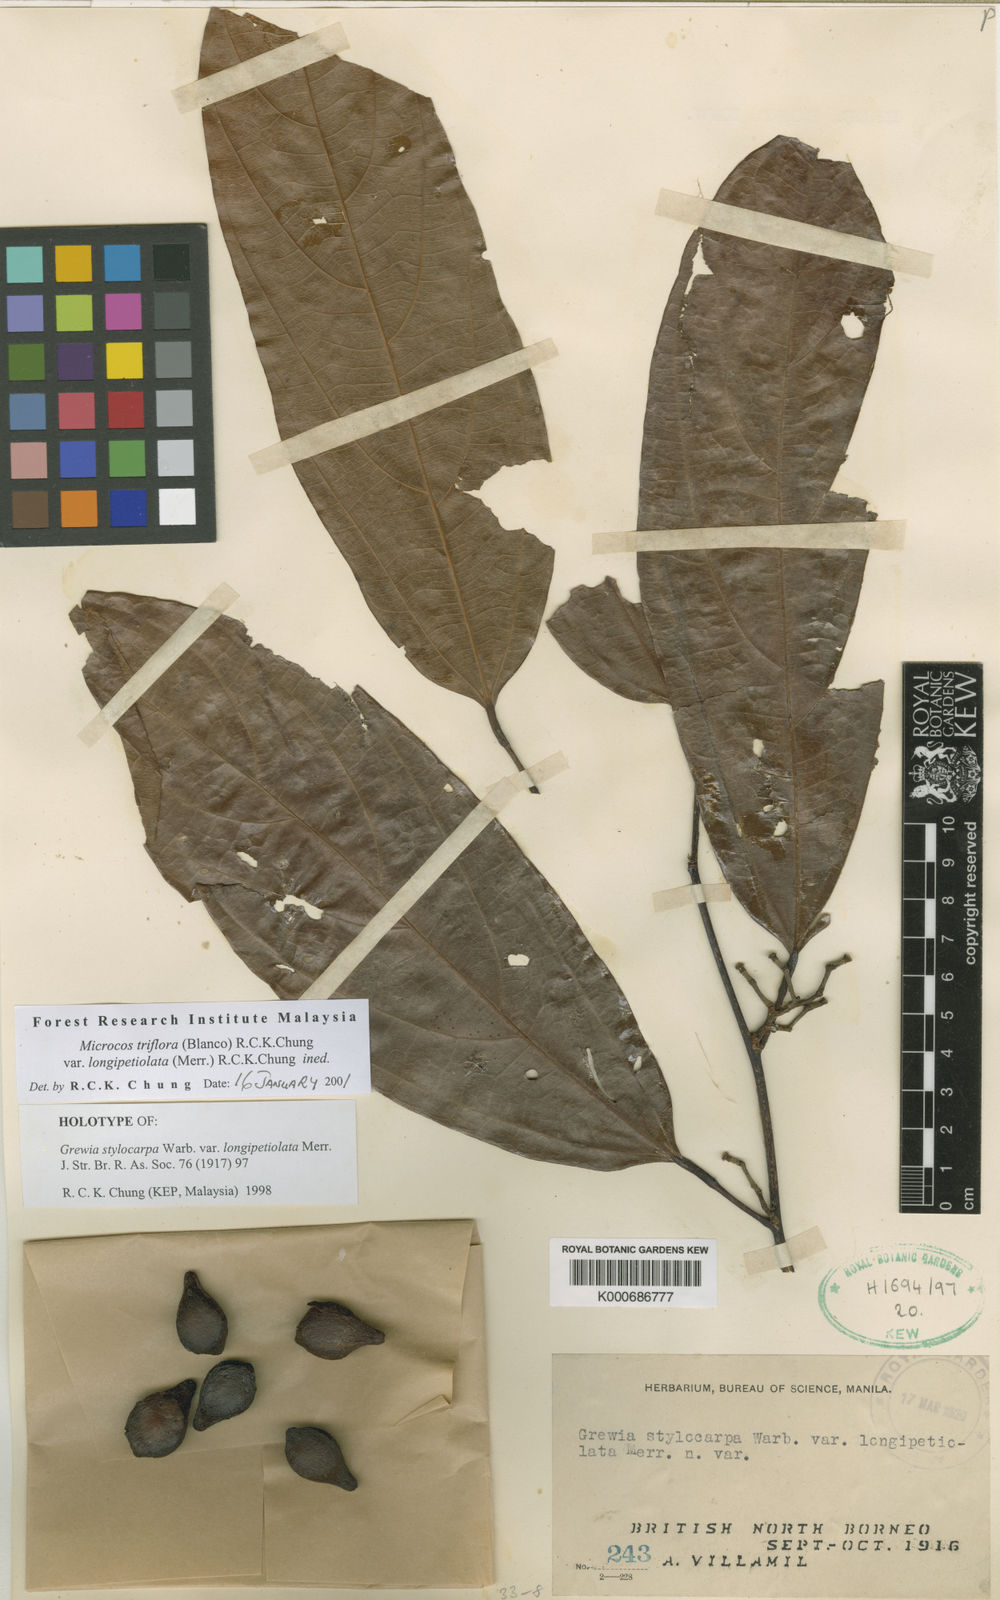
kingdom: Plantae
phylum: Tracheophyta
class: Magnoliopsida
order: Malvales
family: Malvaceae
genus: Microcos
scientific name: Microcos triflora
